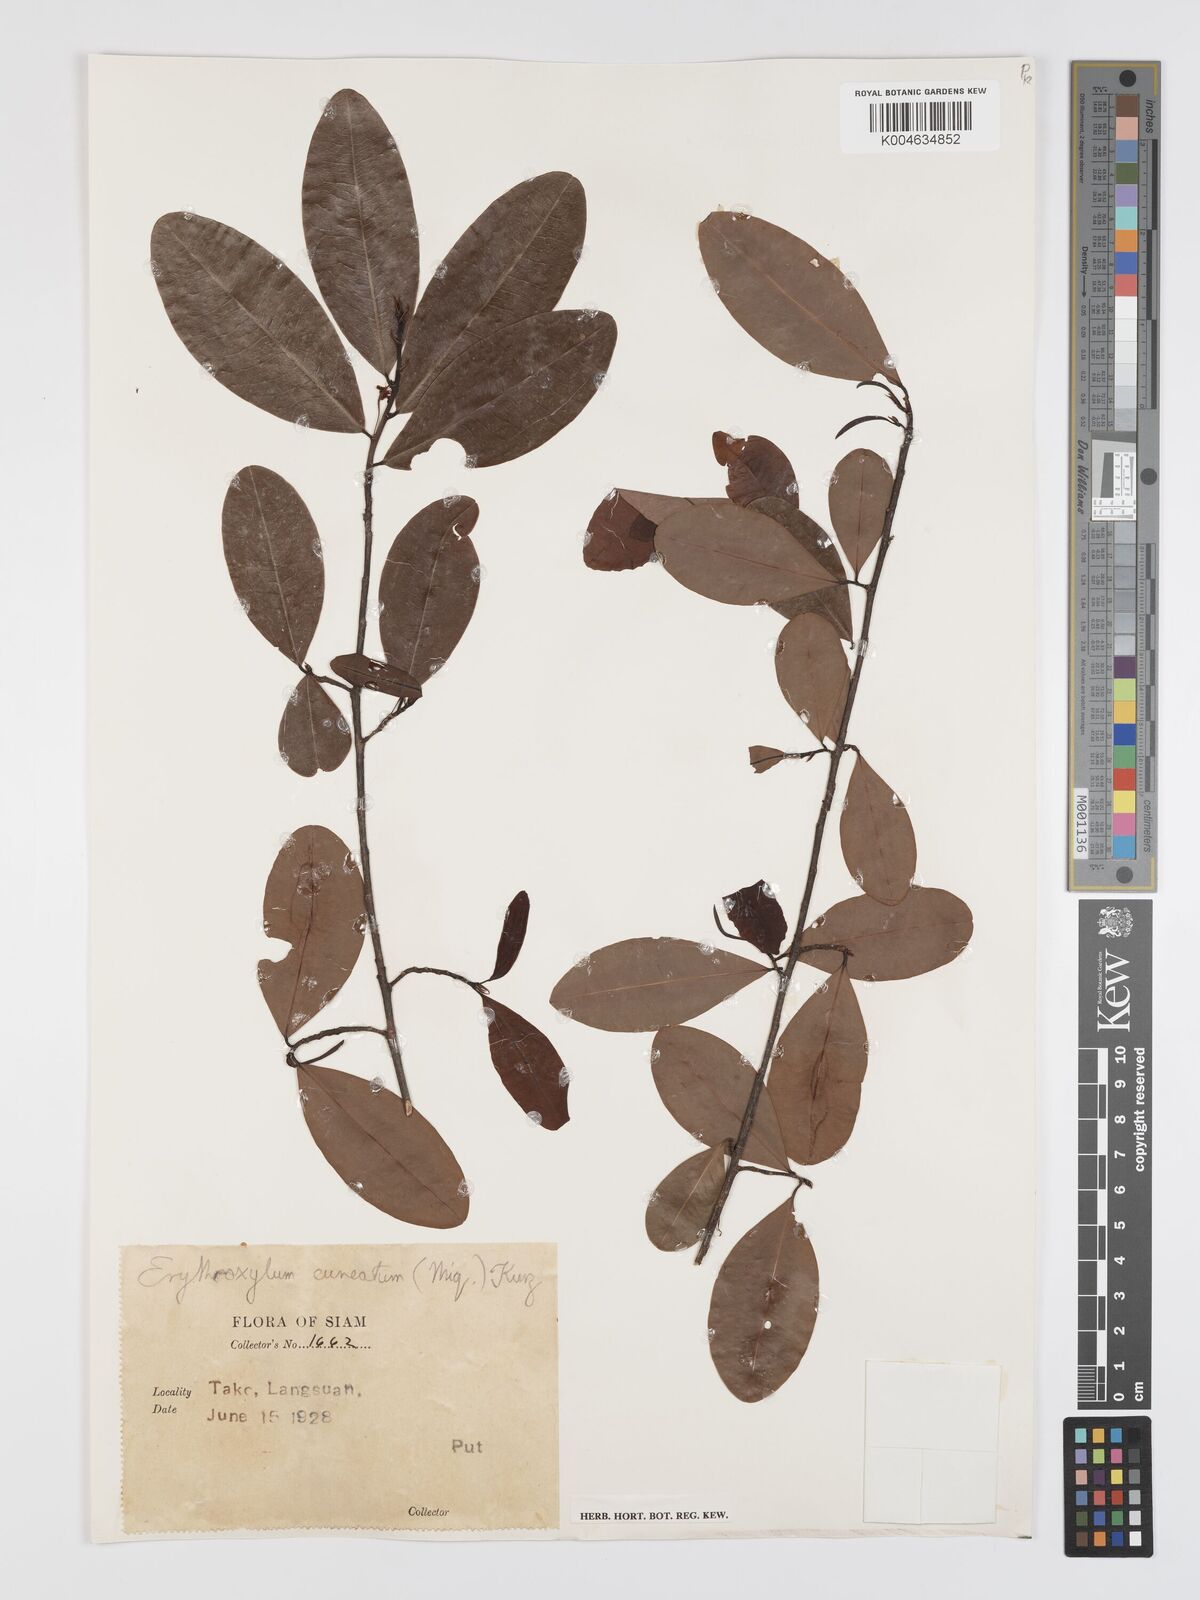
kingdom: Plantae
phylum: Tracheophyta
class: Magnoliopsida
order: Malpighiales
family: Erythroxylaceae
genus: Erythroxylum
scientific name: Erythroxylum cuneatum
